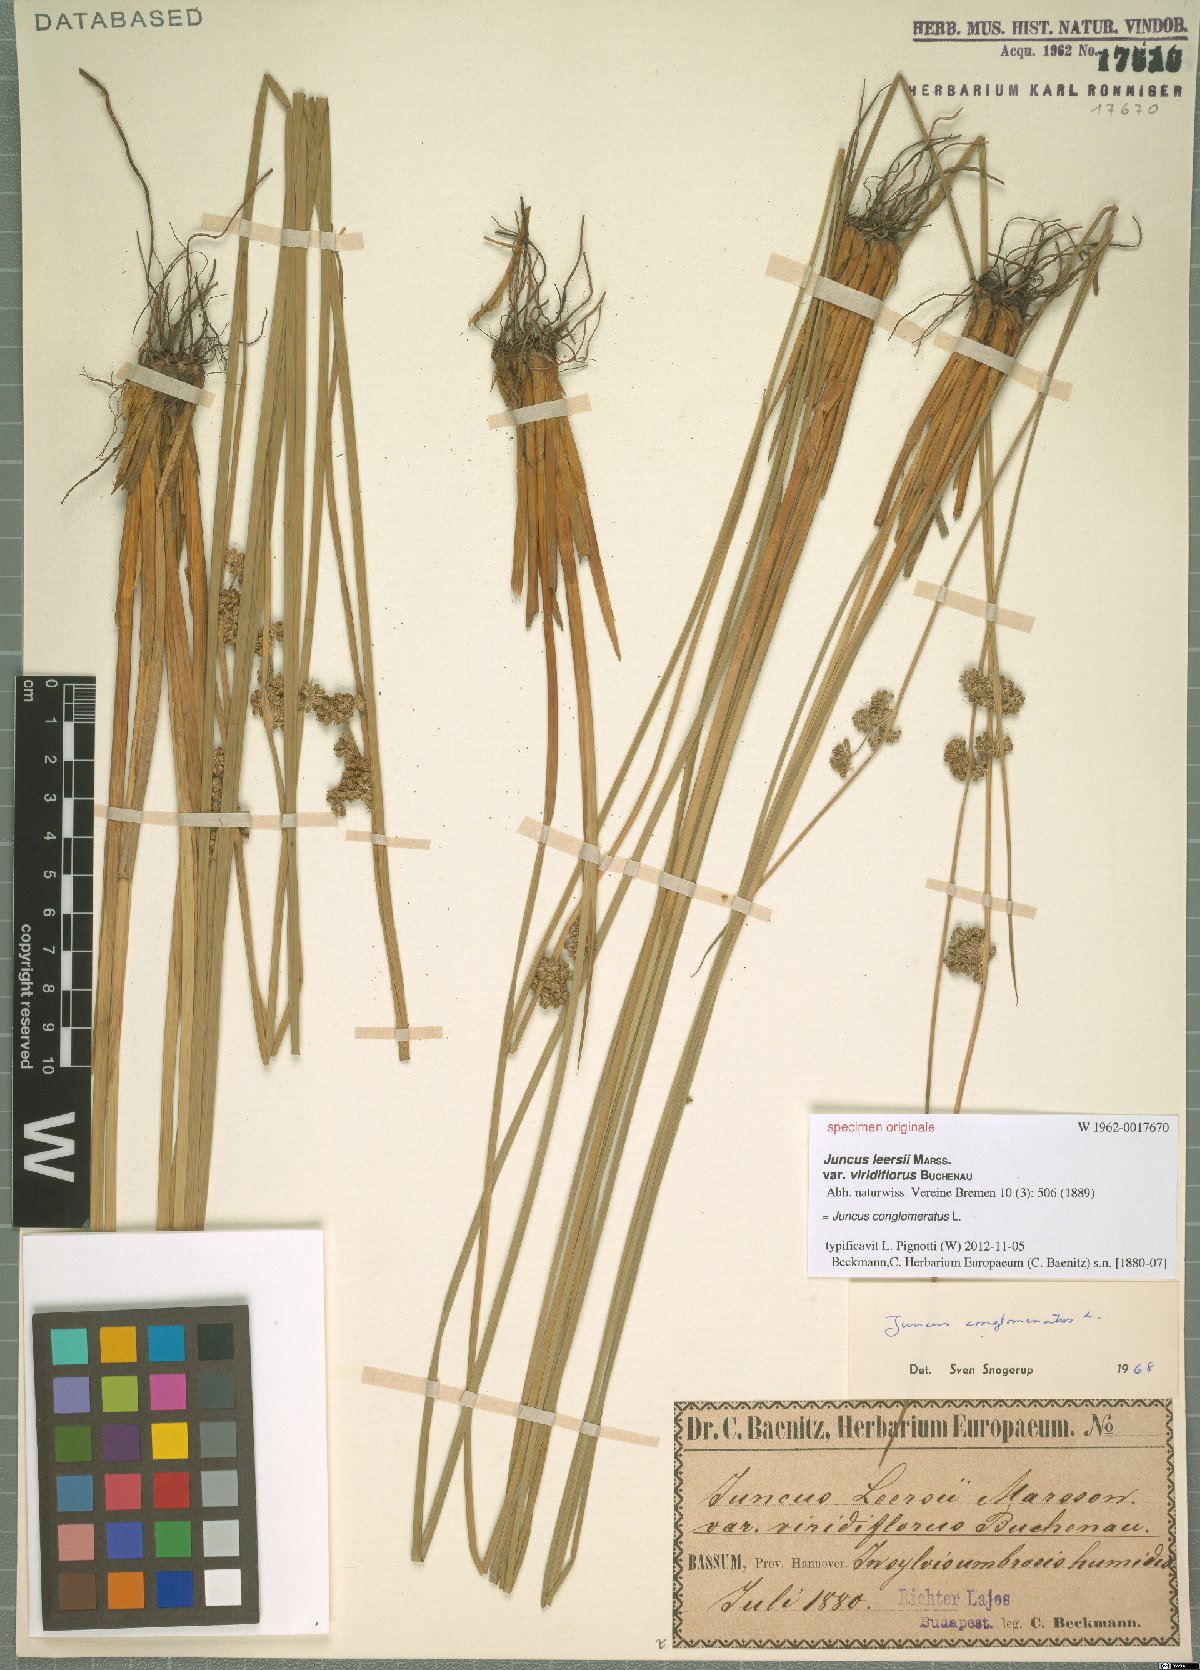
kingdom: Plantae
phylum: Tracheophyta
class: Liliopsida
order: Poales
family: Juncaceae
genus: Juncus
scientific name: Juncus conglomeratus
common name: Compact rush
